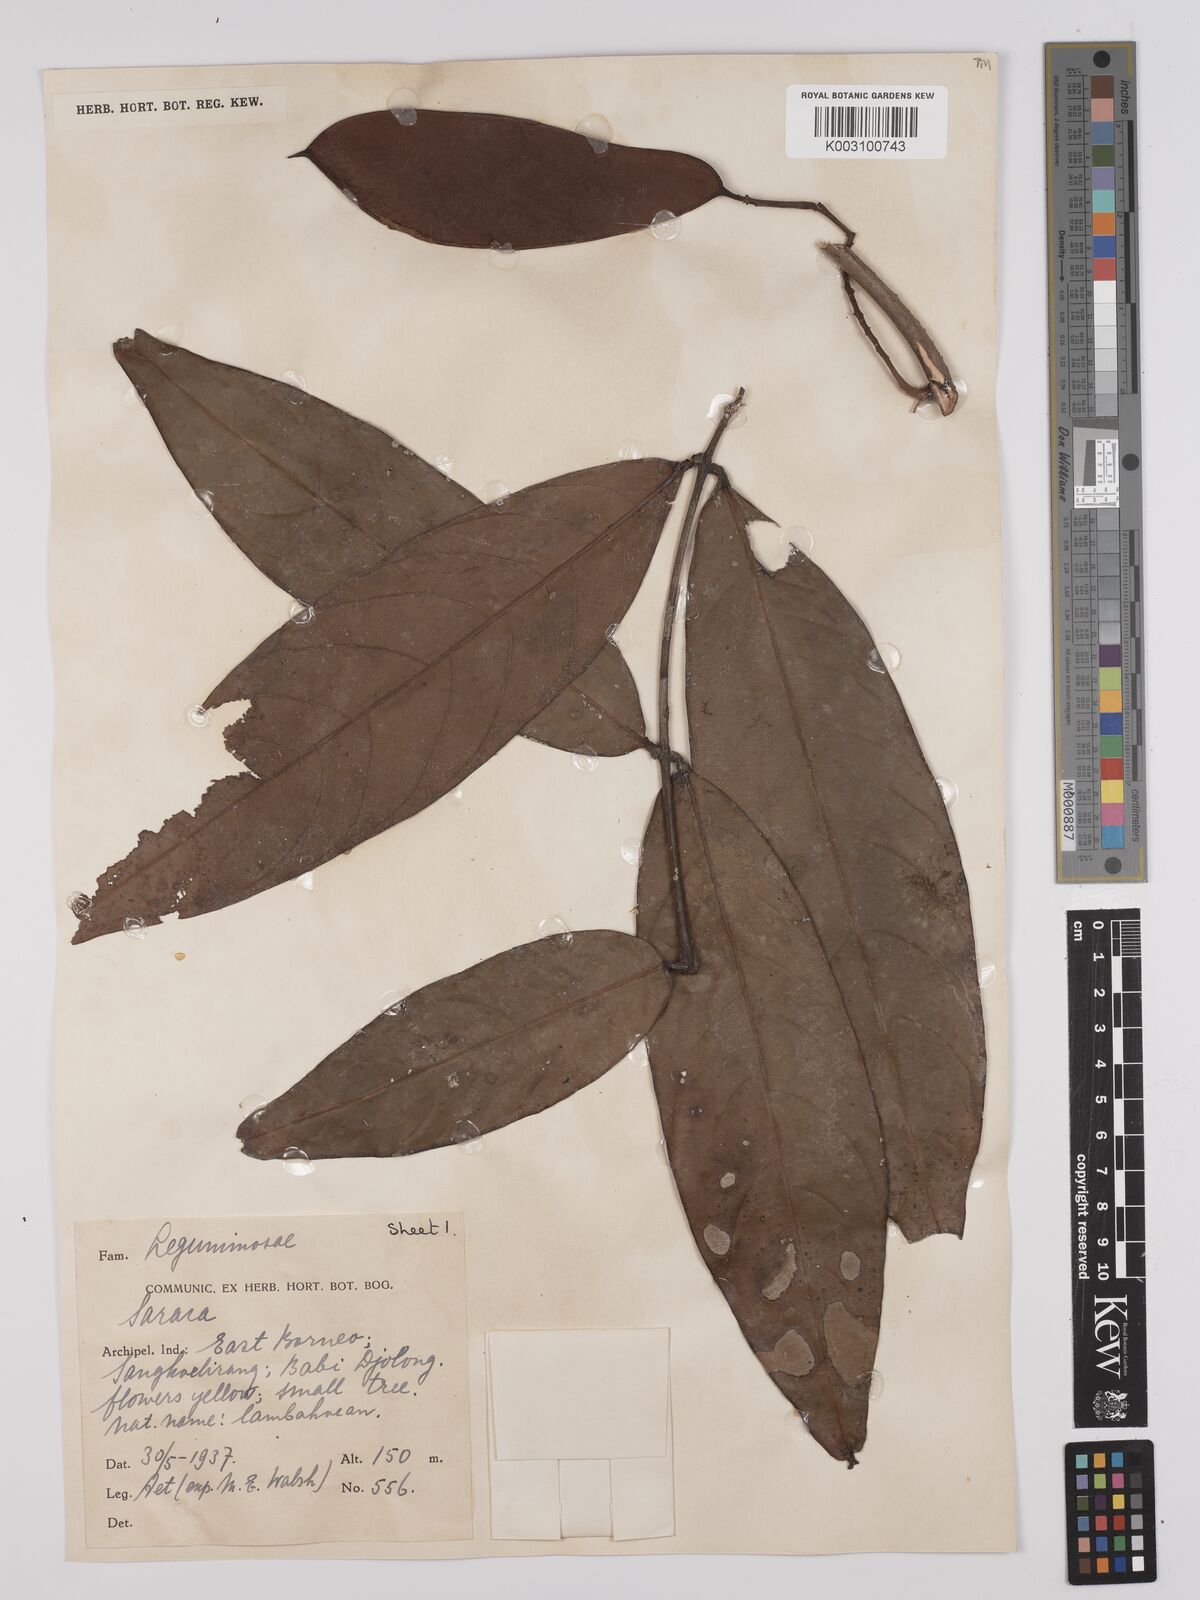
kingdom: Plantae
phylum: Tracheophyta
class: Magnoliopsida
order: Fabales
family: Fabaceae
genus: Saraca
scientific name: Saraca declinata
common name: Red saraca
